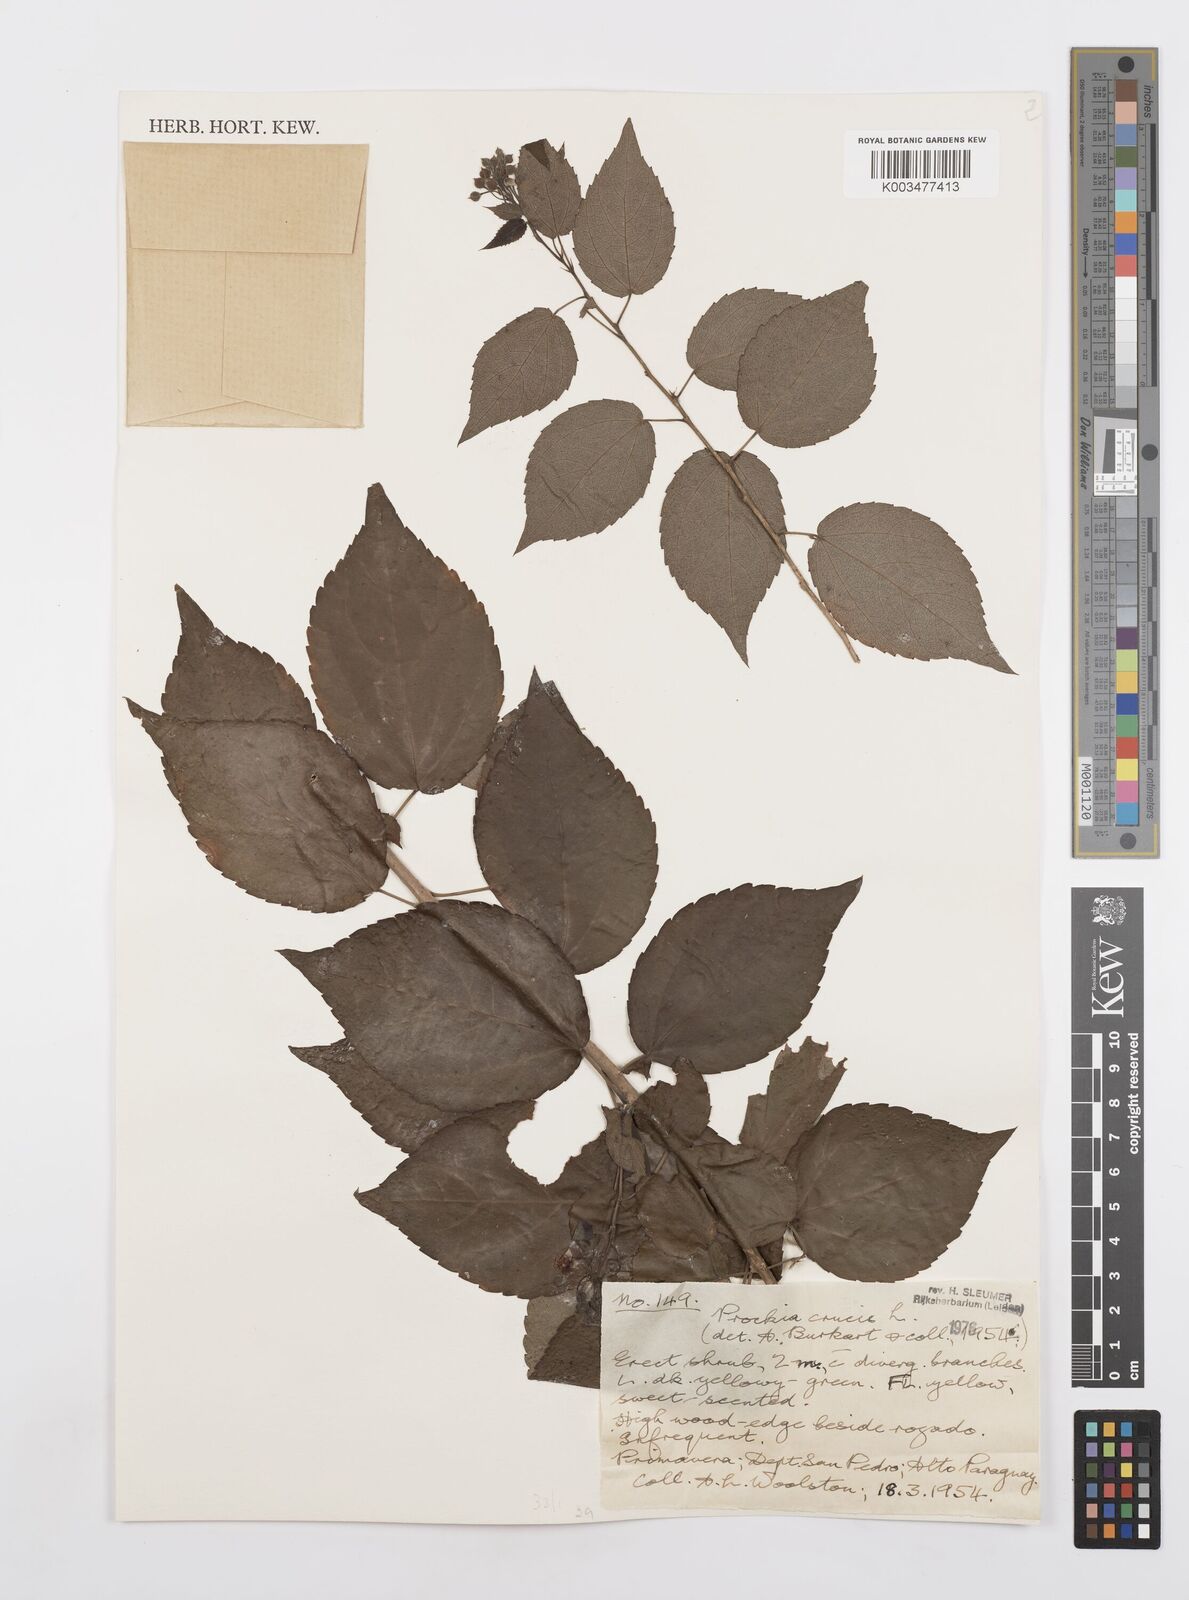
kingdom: Plantae
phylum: Tracheophyta
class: Magnoliopsida
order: Malpighiales
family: Salicaceae
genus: Prockia
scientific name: Prockia crucis
